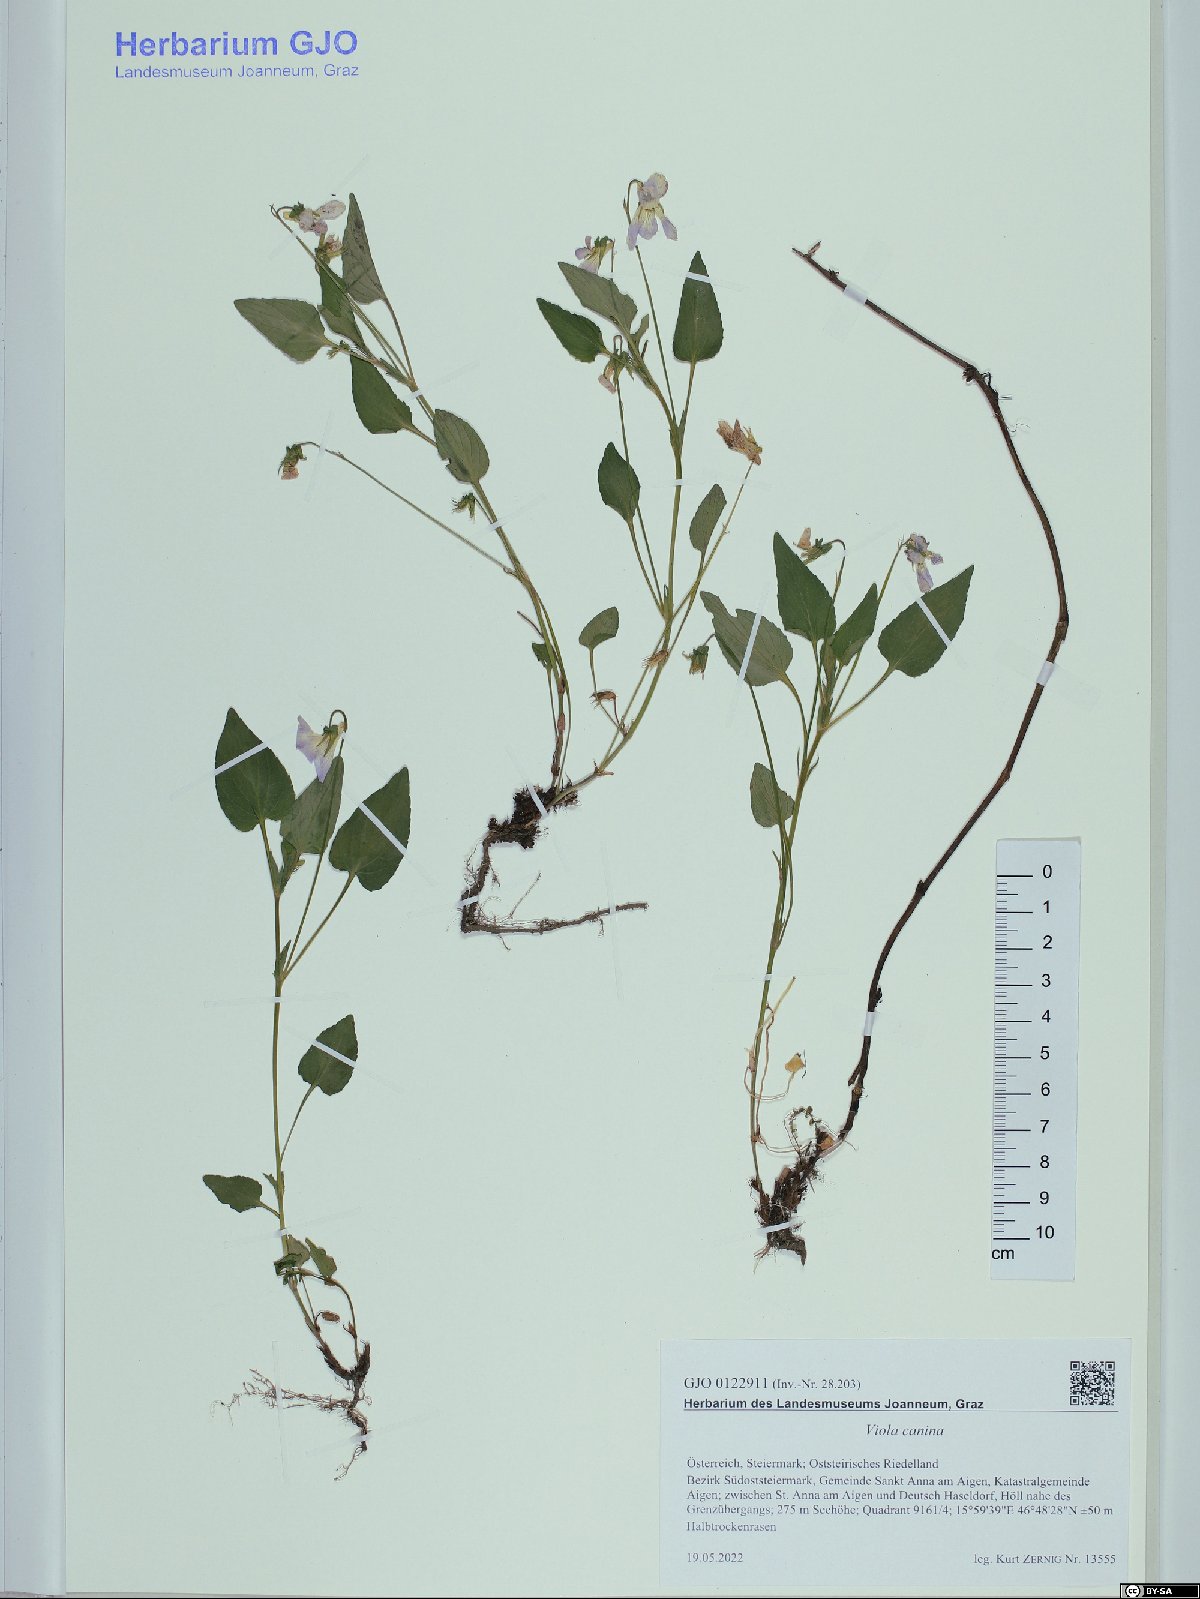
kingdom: Plantae
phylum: Tracheophyta
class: Magnoliopsida
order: Malpighiales
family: Violaceae
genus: Viola
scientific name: Viola canina
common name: Heath dog-violet
